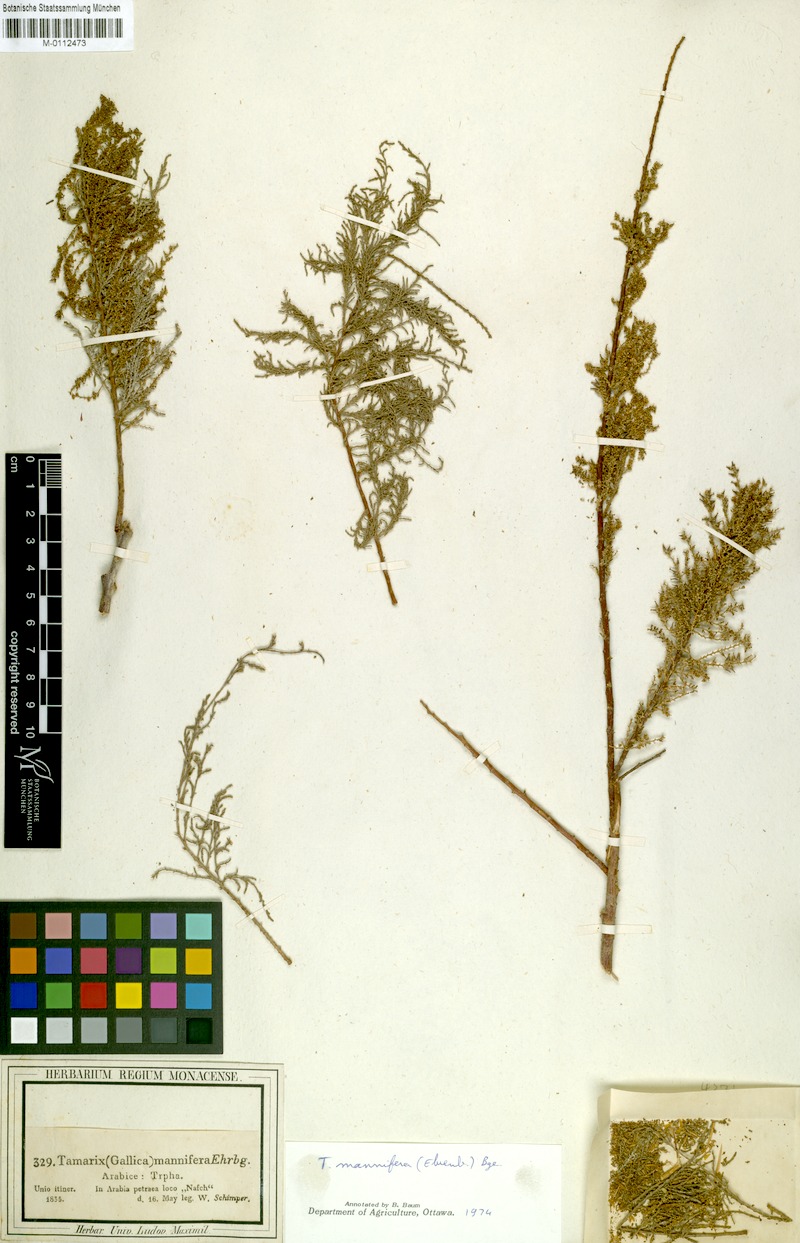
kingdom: Plantae
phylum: Tracheophyta
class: Magnoliopsida
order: Caryophyllales
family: Tamaricaceae
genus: Tamarix
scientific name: Tamarix senegalensis
